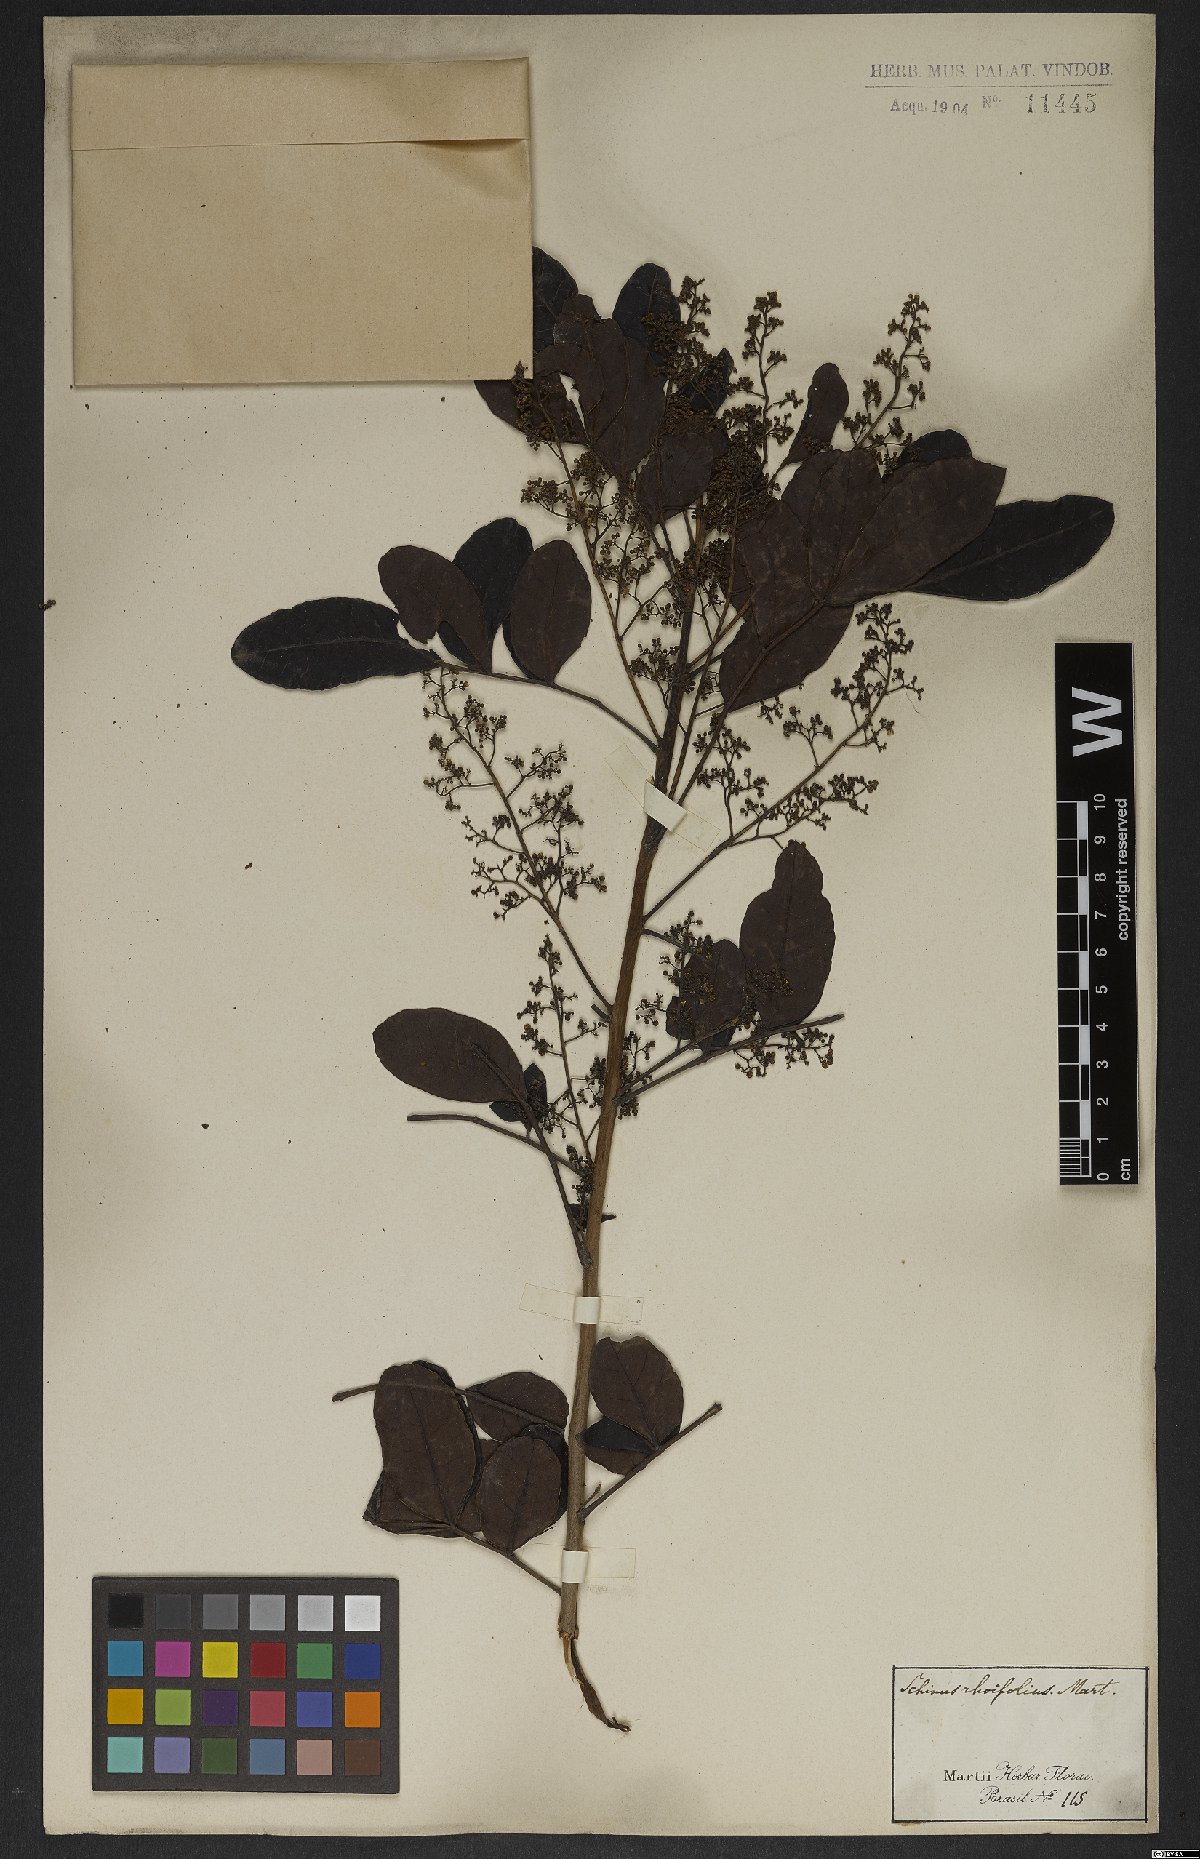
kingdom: Plantae
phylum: Tracheophyta
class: Magnoliopsida
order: Sapindales
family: Anacardiaceae
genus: Schinus
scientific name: Schinus terebinthifolia
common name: Brazilian peppertree
